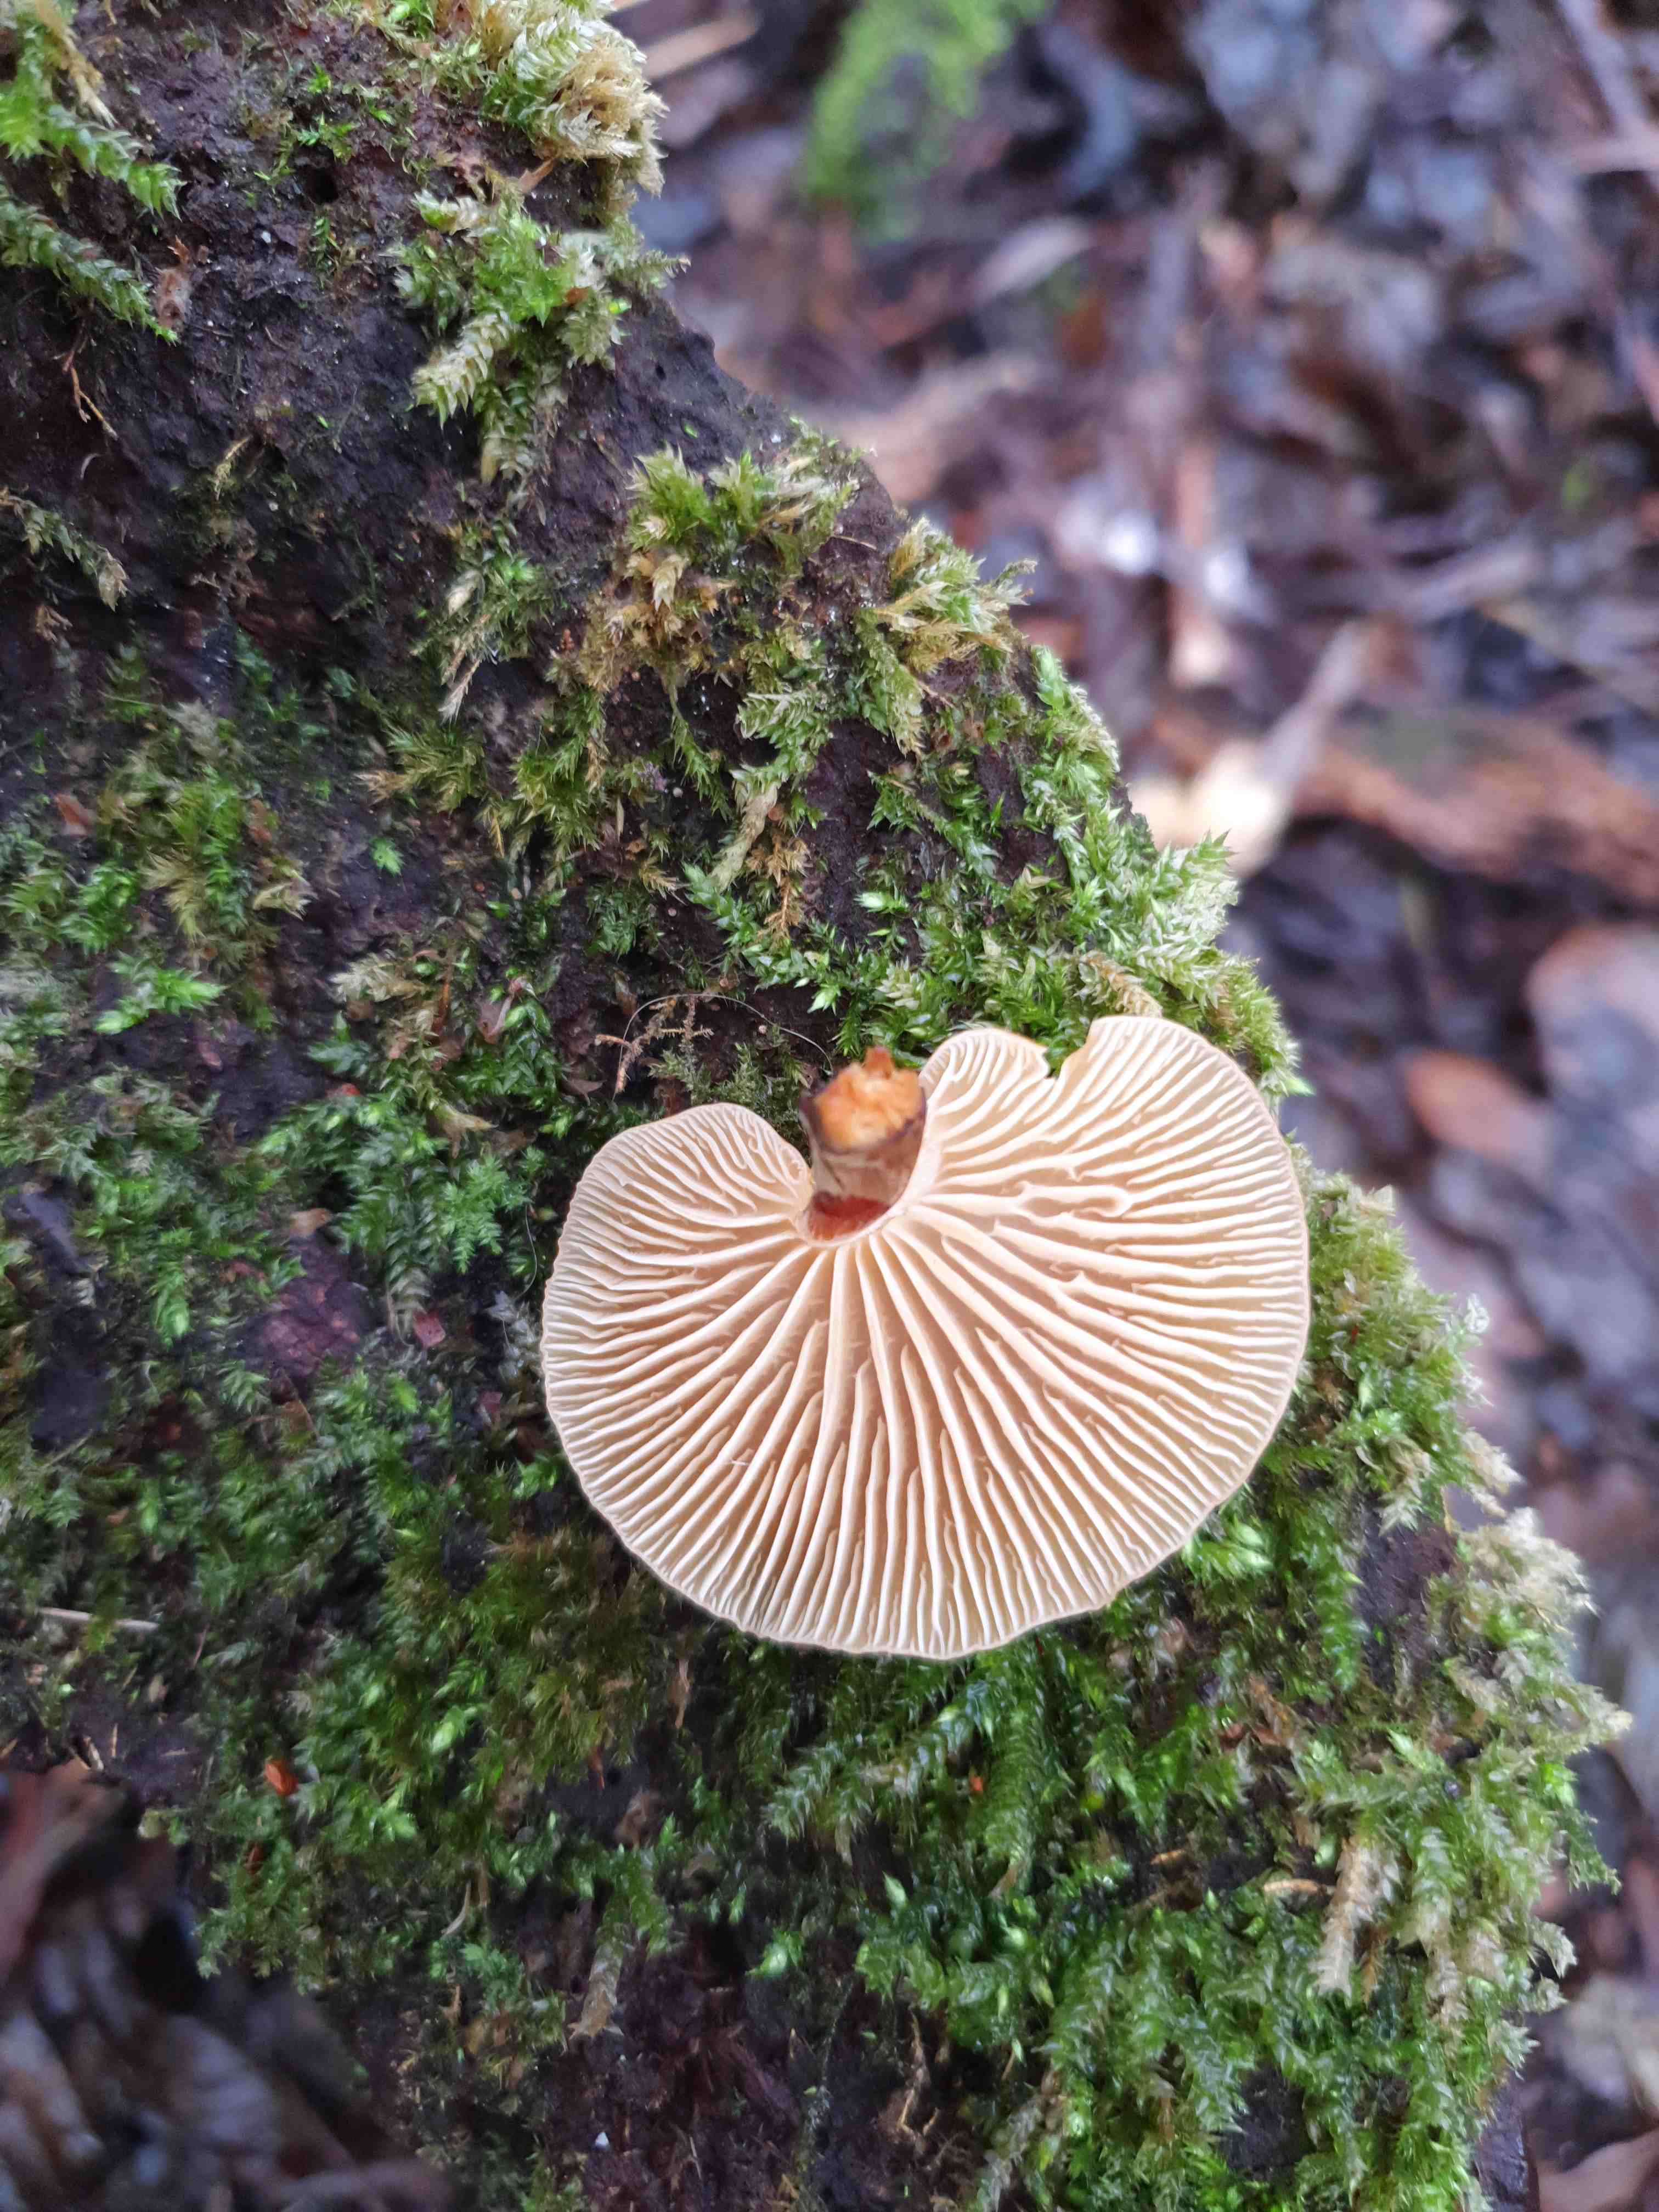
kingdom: Fungi
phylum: Basidiomycota
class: Agaricomycetes
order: Agaricales
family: Physalacriaceae
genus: Flammulina
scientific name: Flammulina
